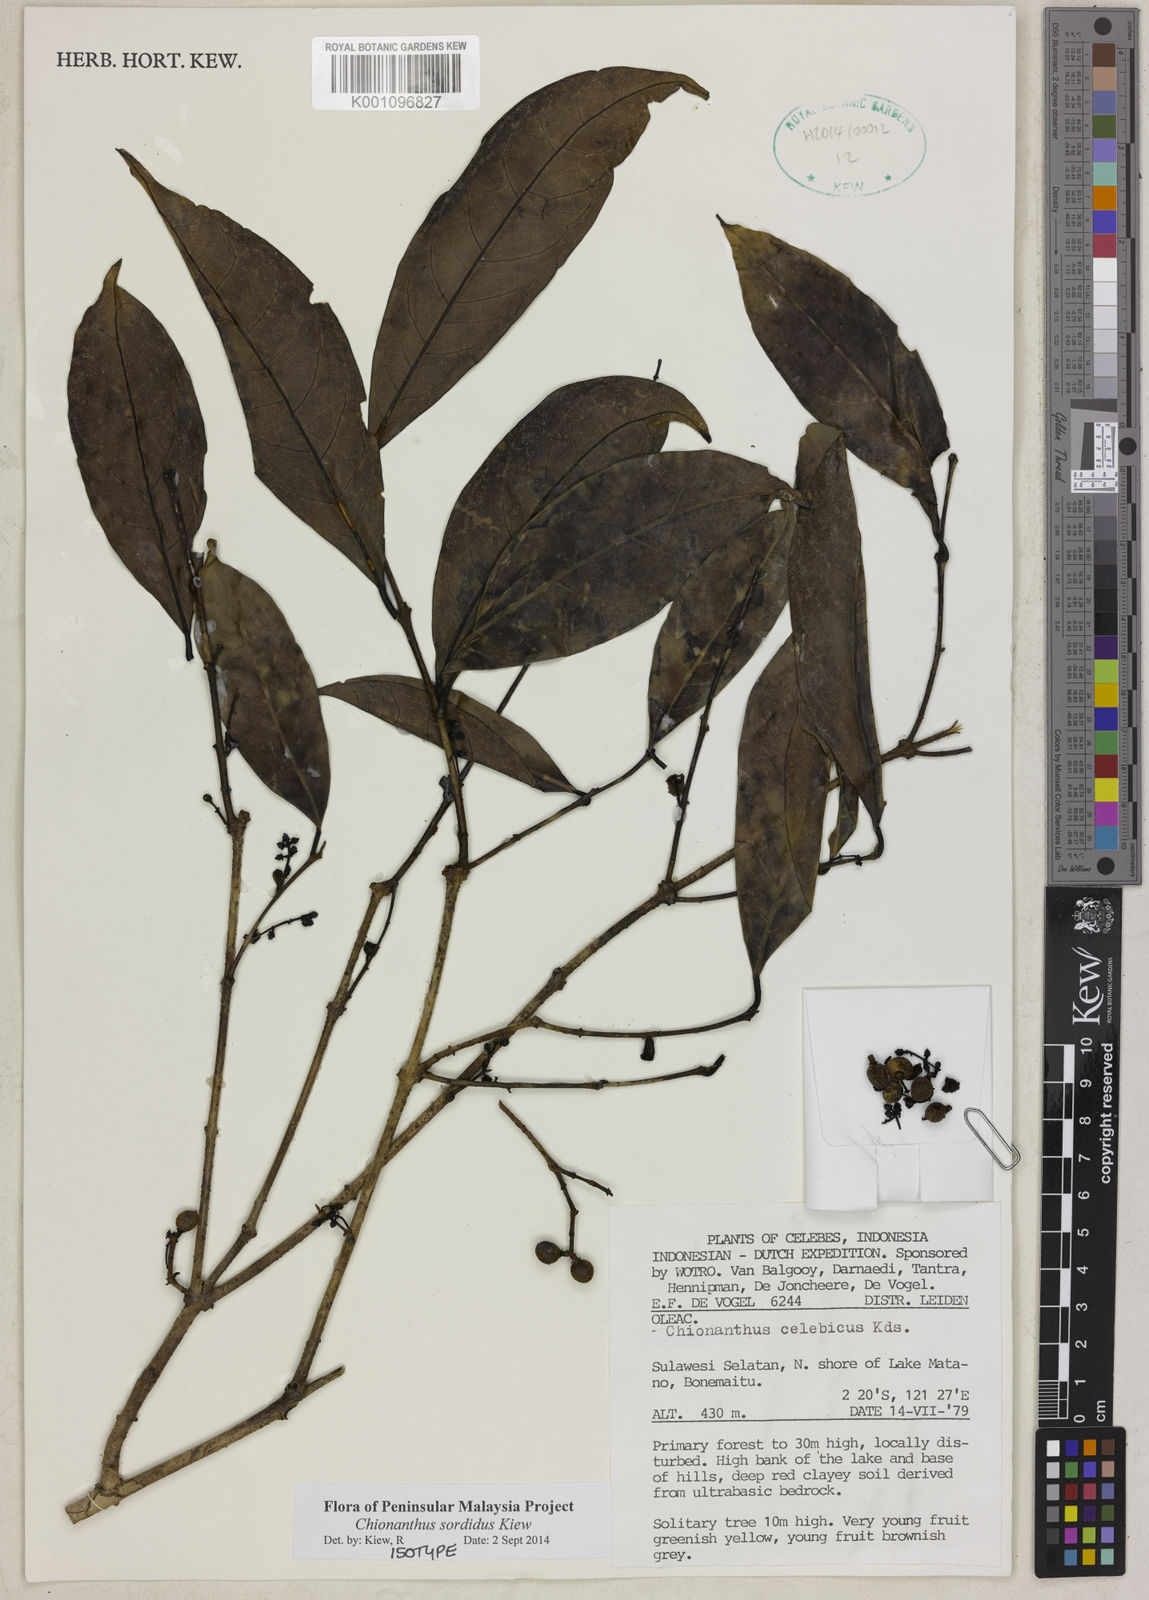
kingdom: Plantae
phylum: Tracheophyta
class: Magnoliopsida
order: Lamiales
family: Oleaceae
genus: Chionanthus
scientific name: Chionanthus sordidus
